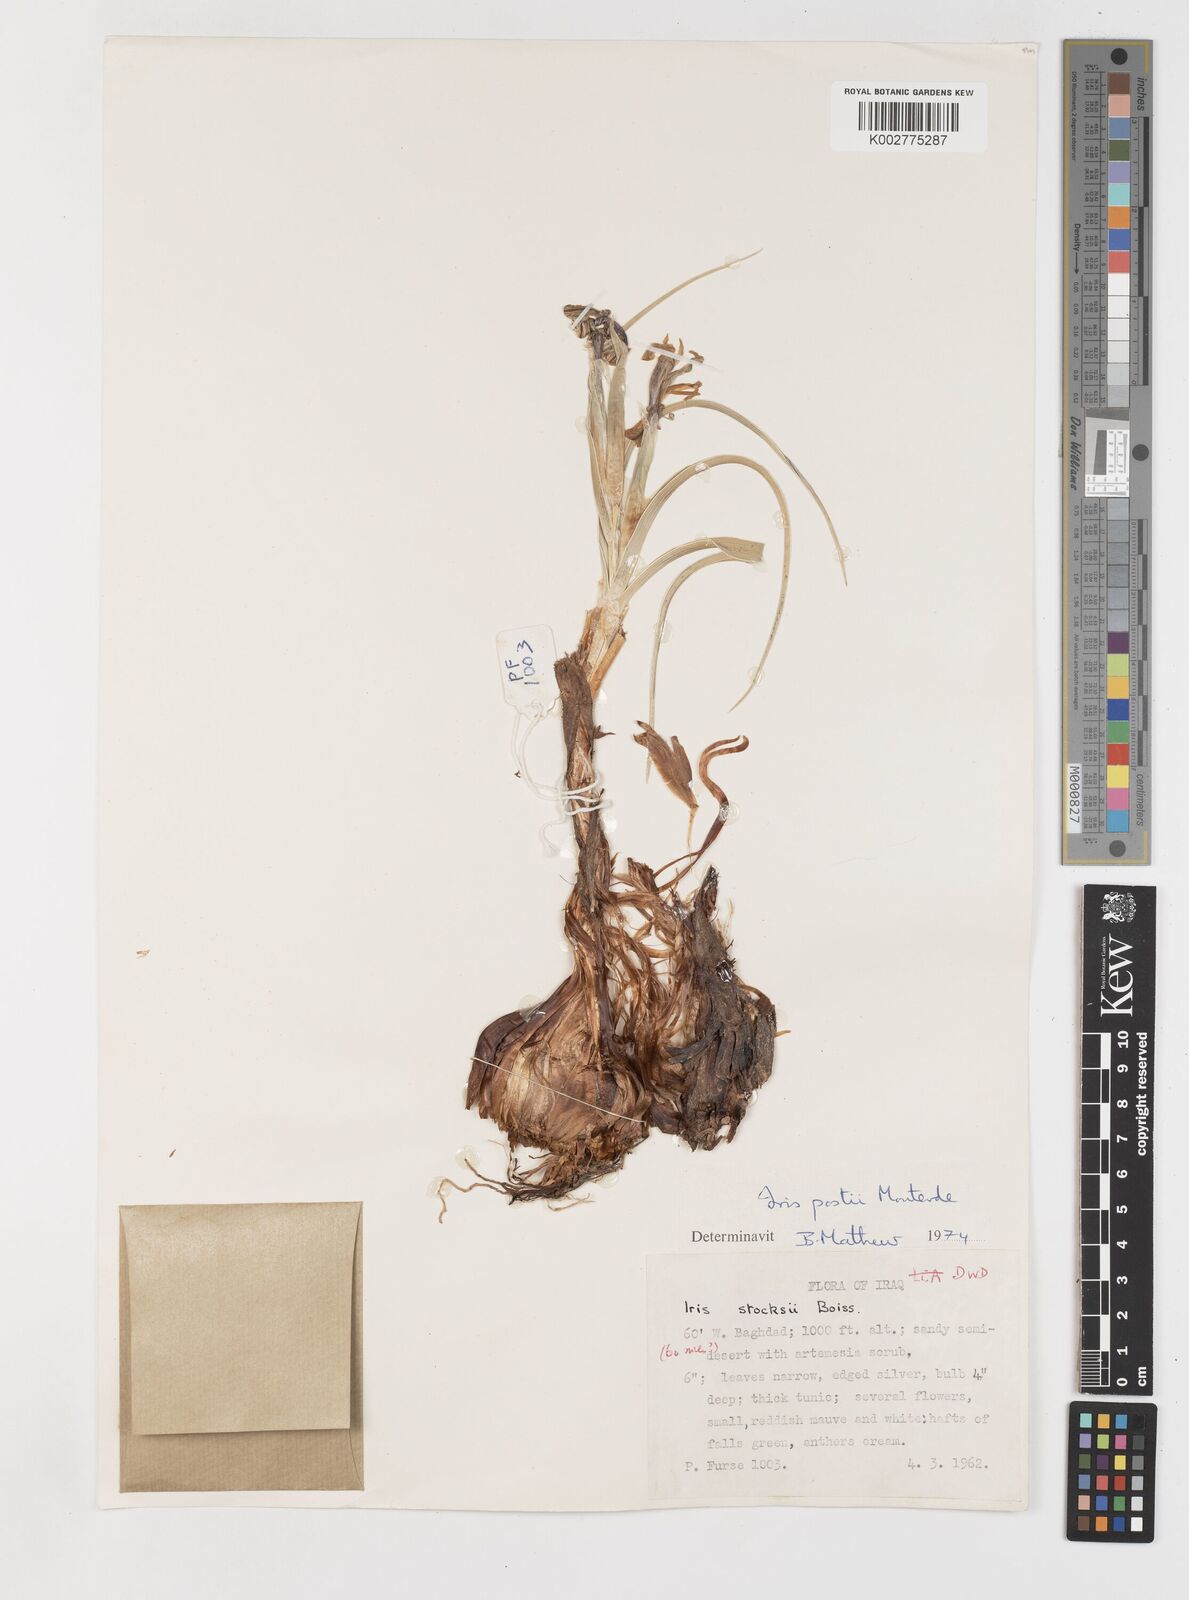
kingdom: Plantae
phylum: Tracheophyta
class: Liliopsida
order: Asparagales
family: Iridaceae
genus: Iris
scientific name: Iris postii
